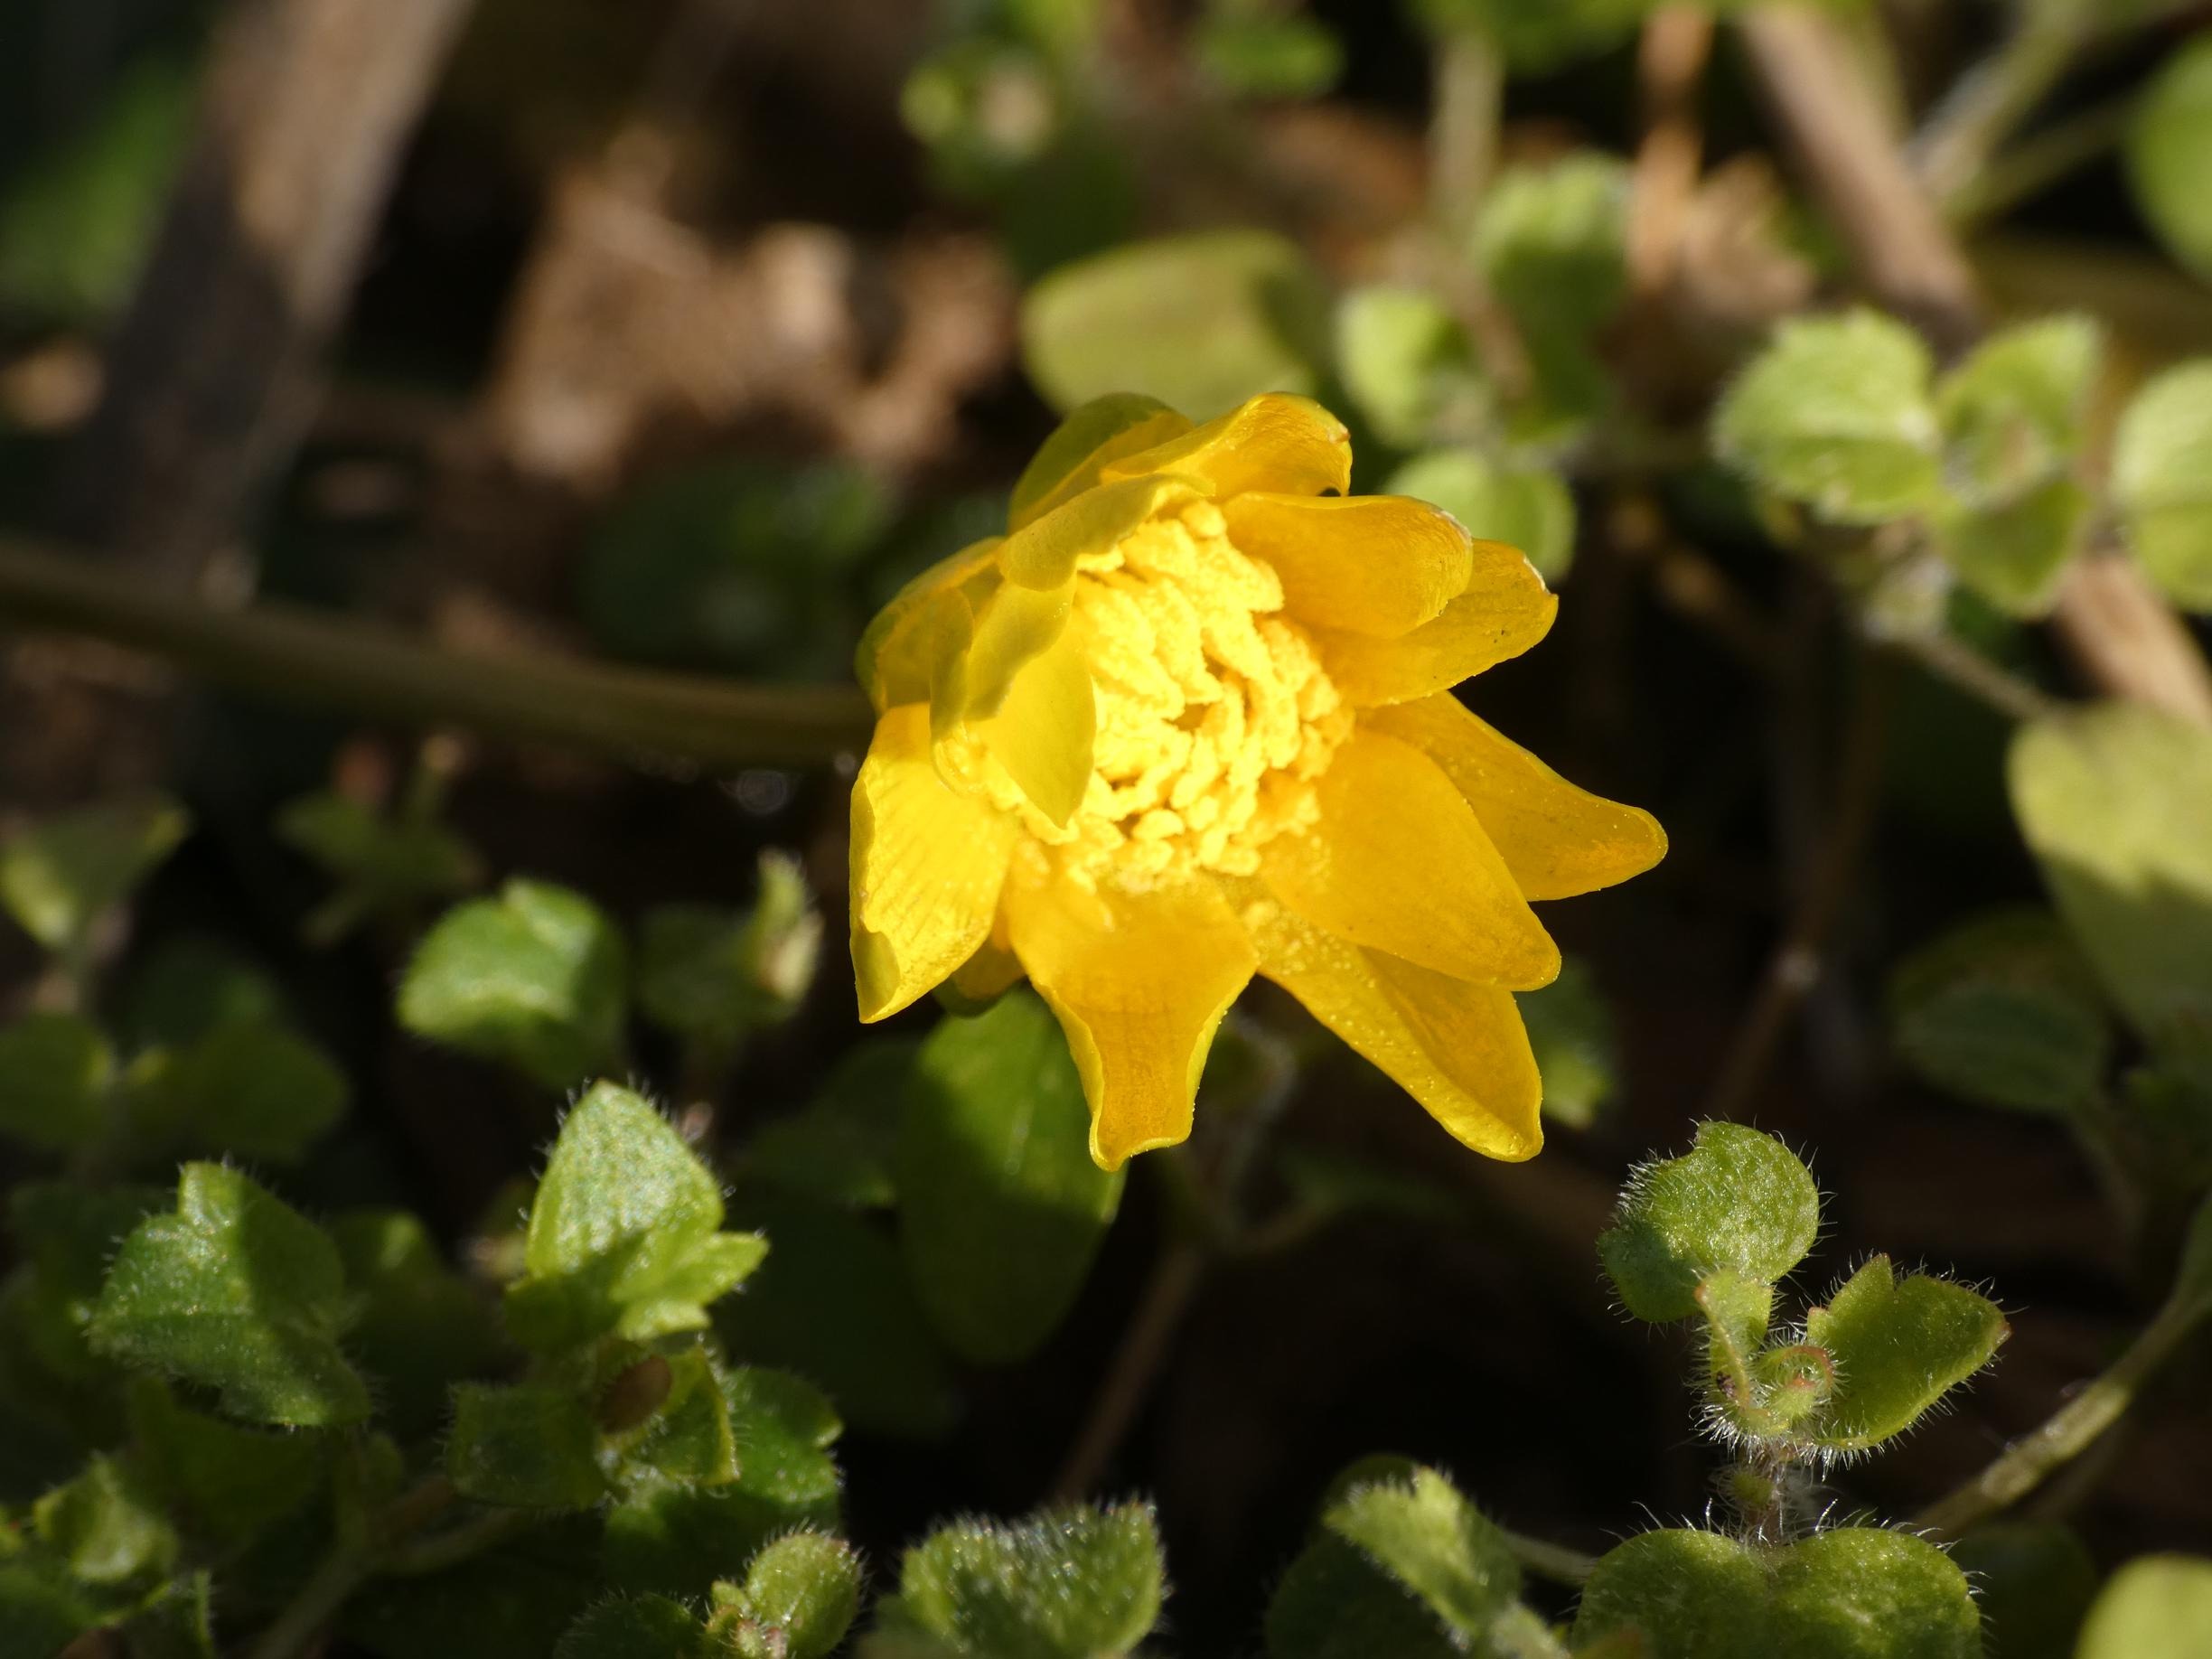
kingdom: Plantae
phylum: Tracheophyta
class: Magnoliopsida
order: Ranunculales
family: Ranunculaceae
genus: Ficaria
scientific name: Ficaria verna
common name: Vorterod
